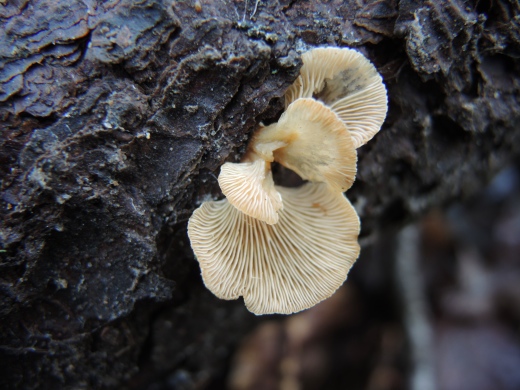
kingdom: Fungi
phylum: Basidiomycota
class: Agaricomycetes
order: Agaricales
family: Mycenaceae
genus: Panellus
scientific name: Panellus mitis
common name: mild epaulethat
